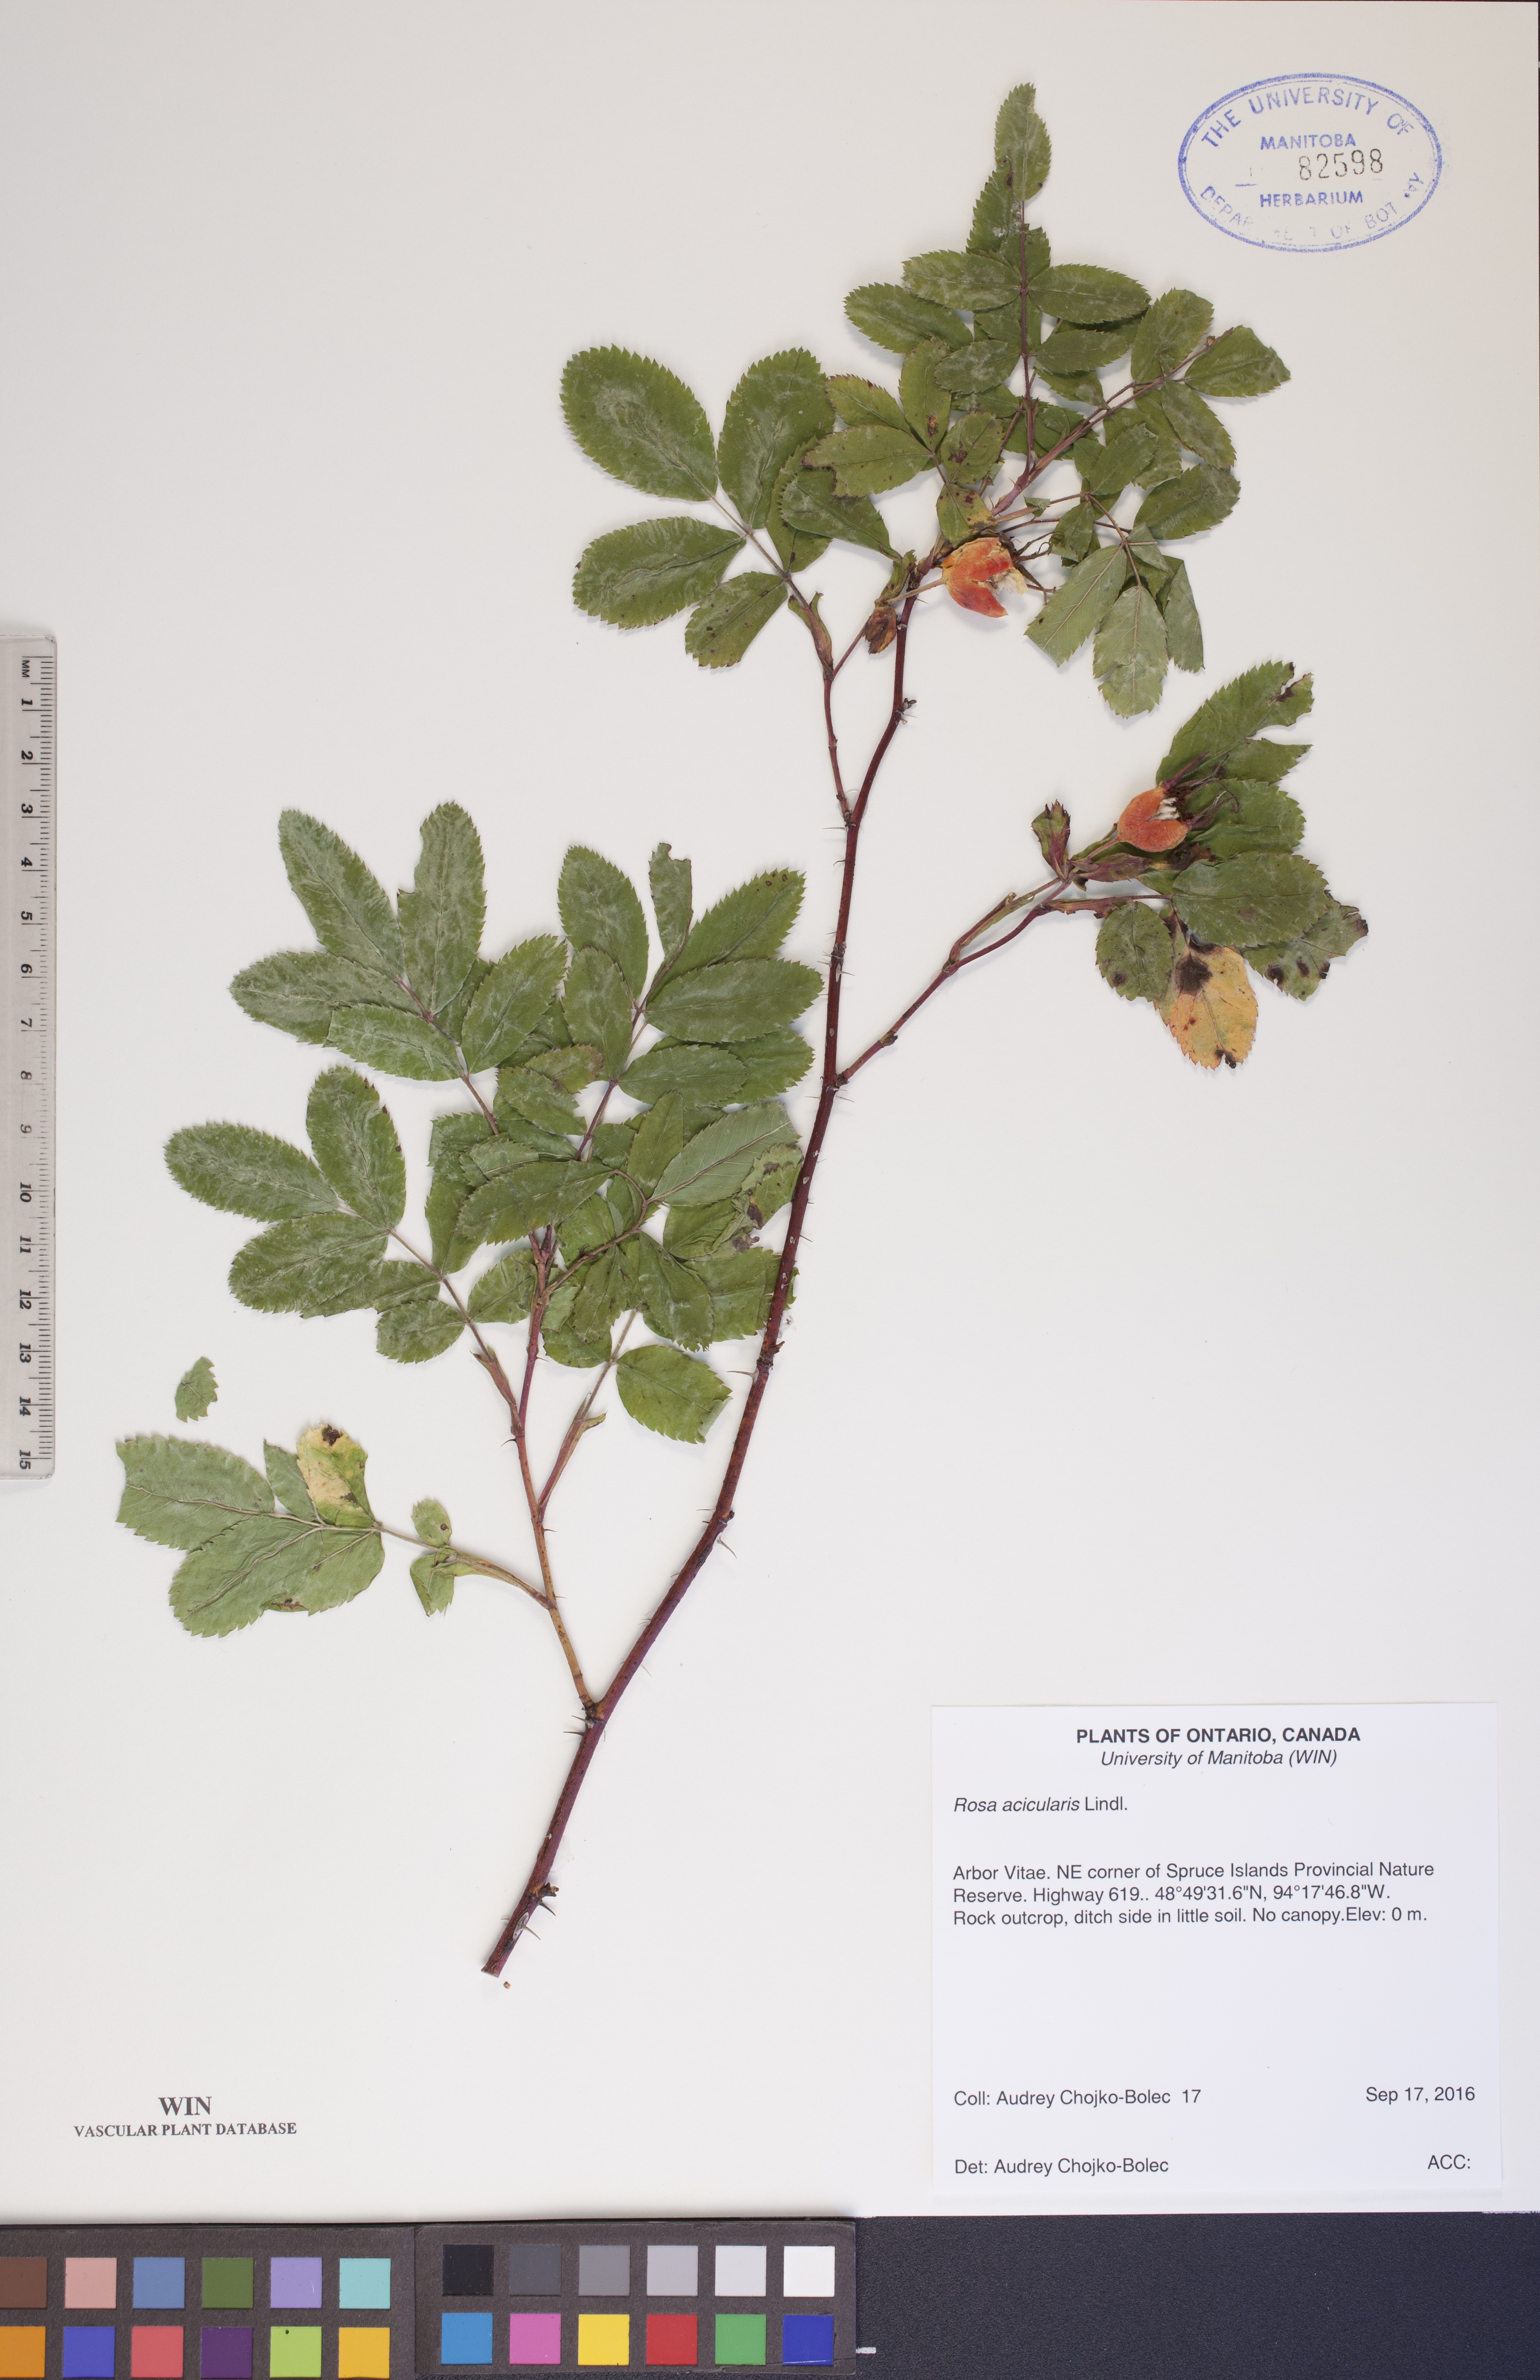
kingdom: Plantae
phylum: Tracheophyta
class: Magnoliopsida
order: Rosales
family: Rosaceae
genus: Rosa
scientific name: Rosa acicularis
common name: Prickly rose
